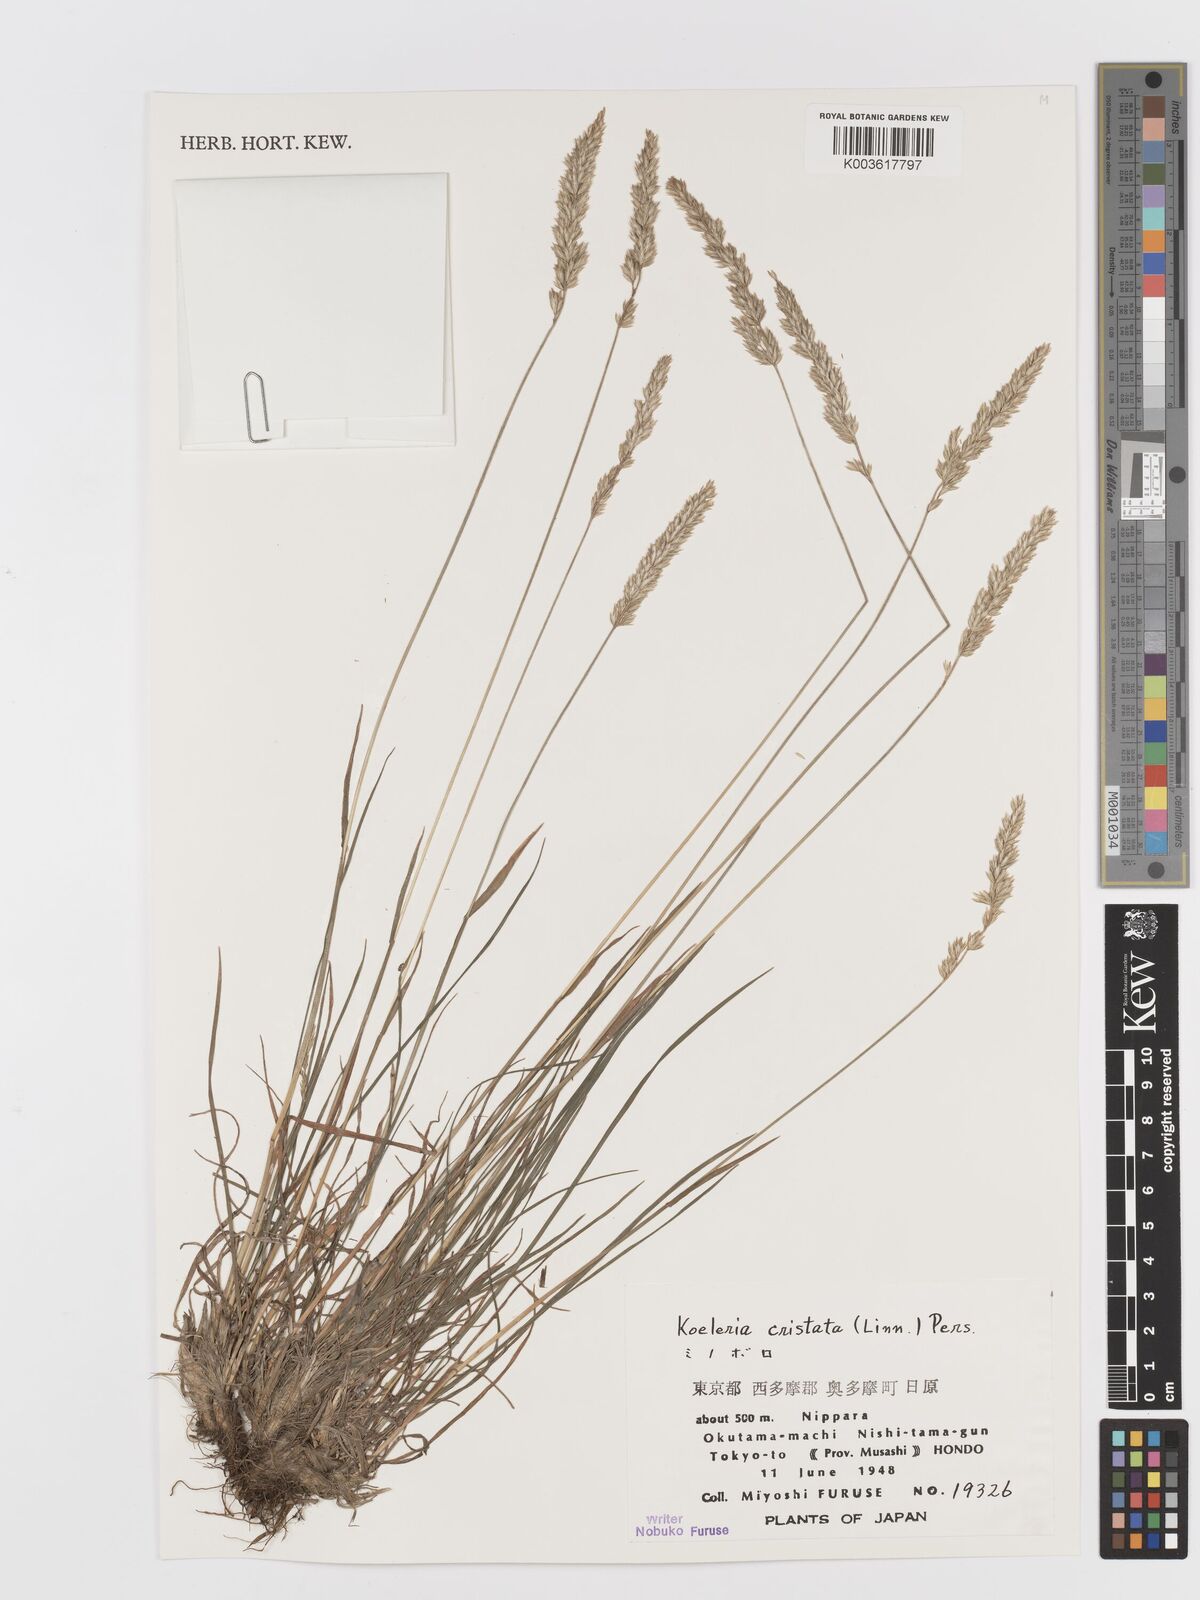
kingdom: Plantae
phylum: Tracheophyta
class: Liliopsida
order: Poales
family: Poaceae
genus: Koeleria
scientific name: Koeleria macrantha
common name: Crested hair-grass
